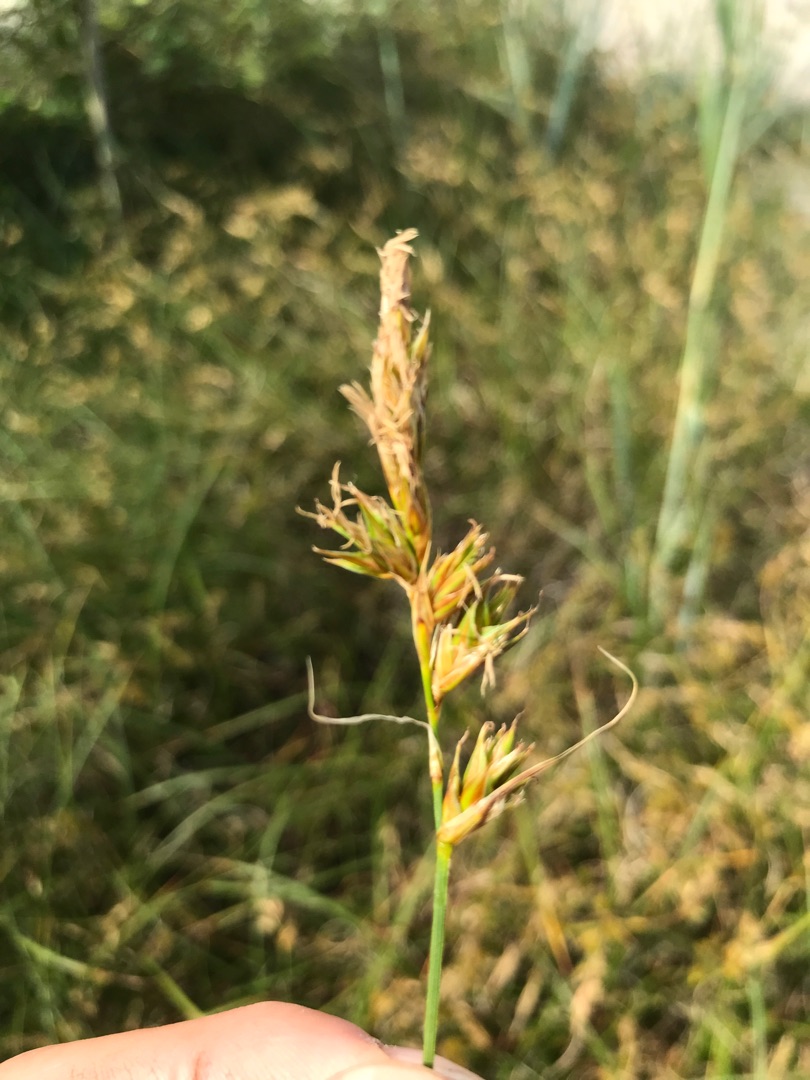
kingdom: Plantae
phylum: Tracheophyta
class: Liliopsida
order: Poales
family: Cyperaceae
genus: Carex
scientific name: Carex arenaria
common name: Sand-star
